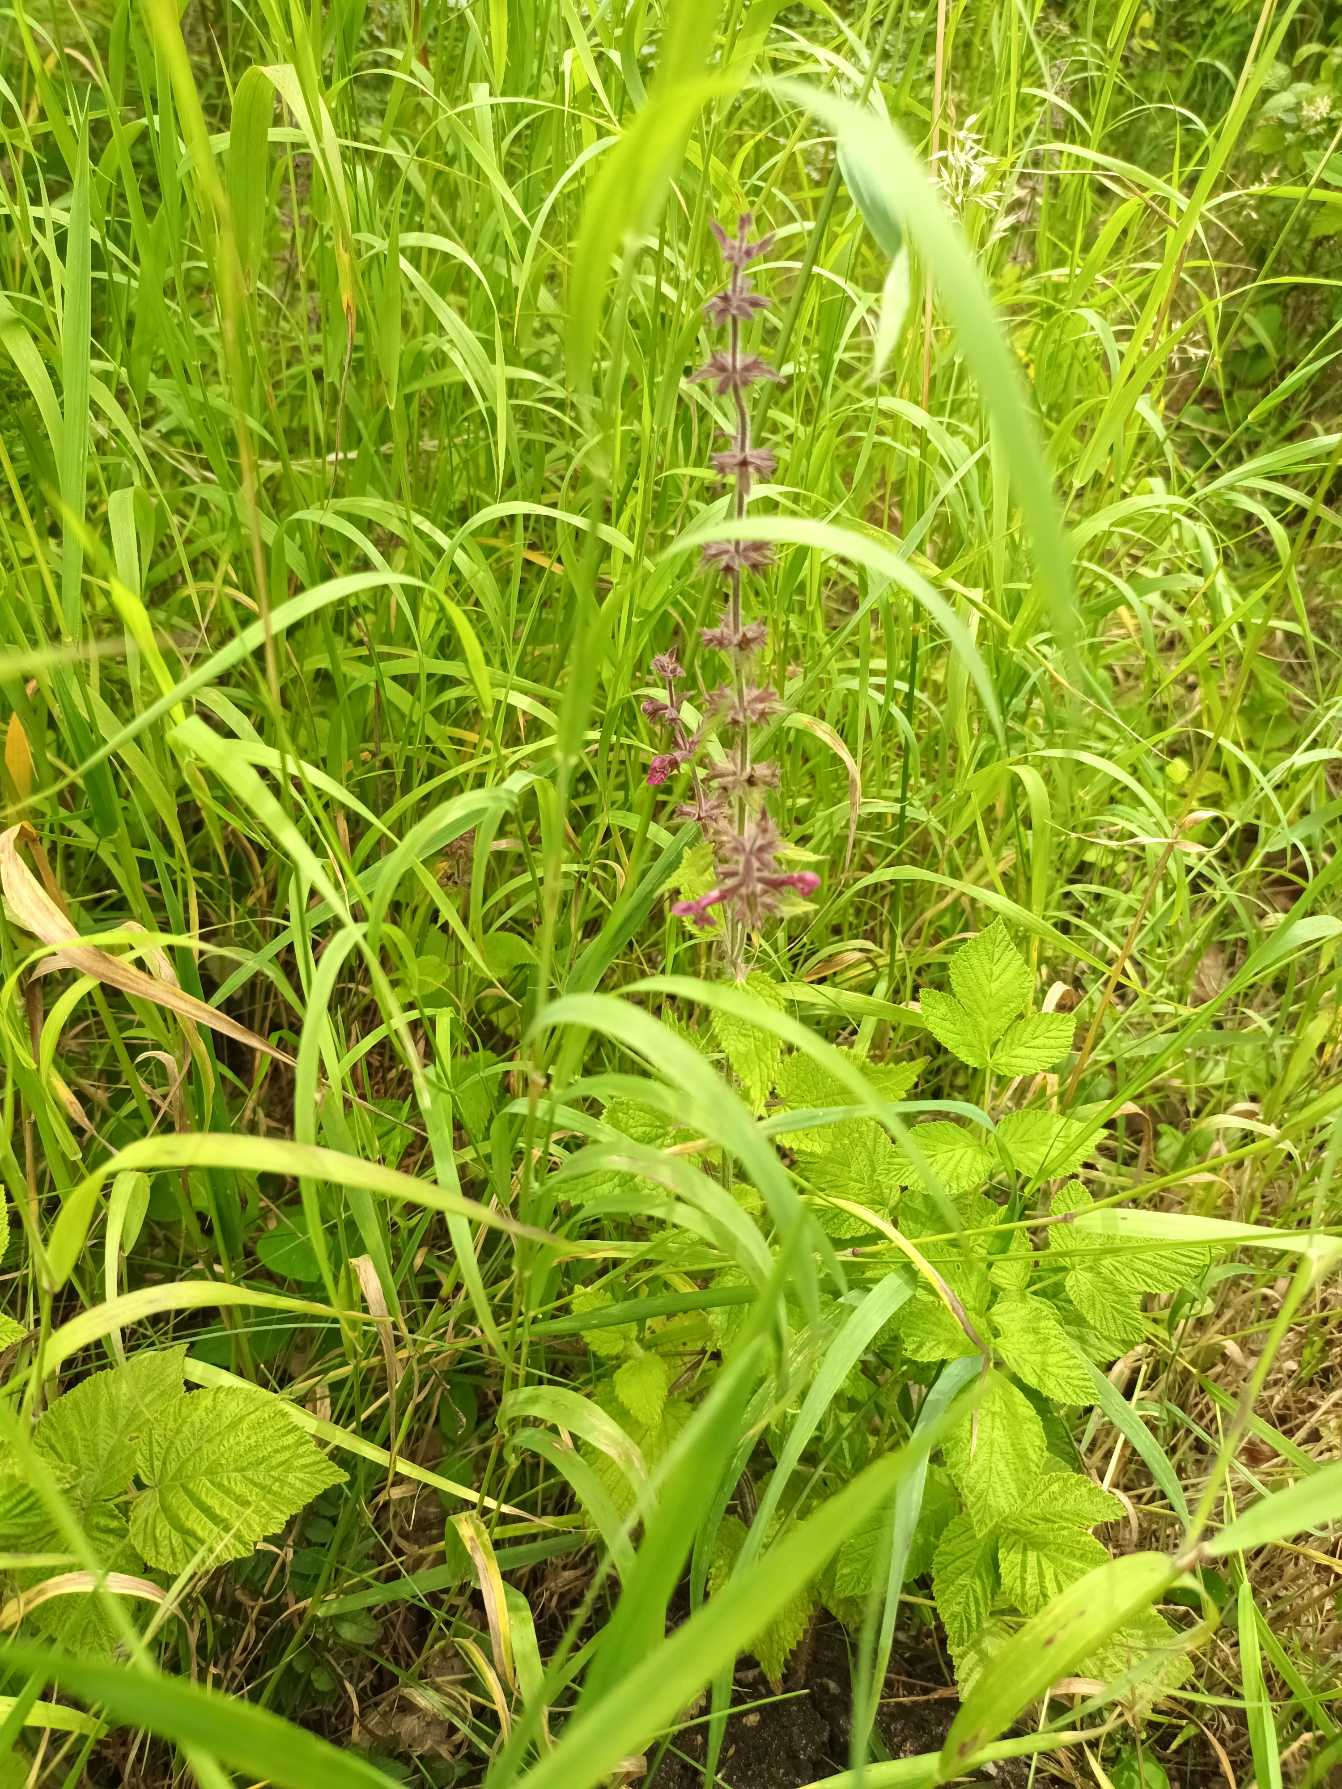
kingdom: Plantae
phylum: Tracheophyta
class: Magnoliopsida
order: Lamiales
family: Lamiaceae
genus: Stachys
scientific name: Stachys sylvatica
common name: Skov-galtetand
